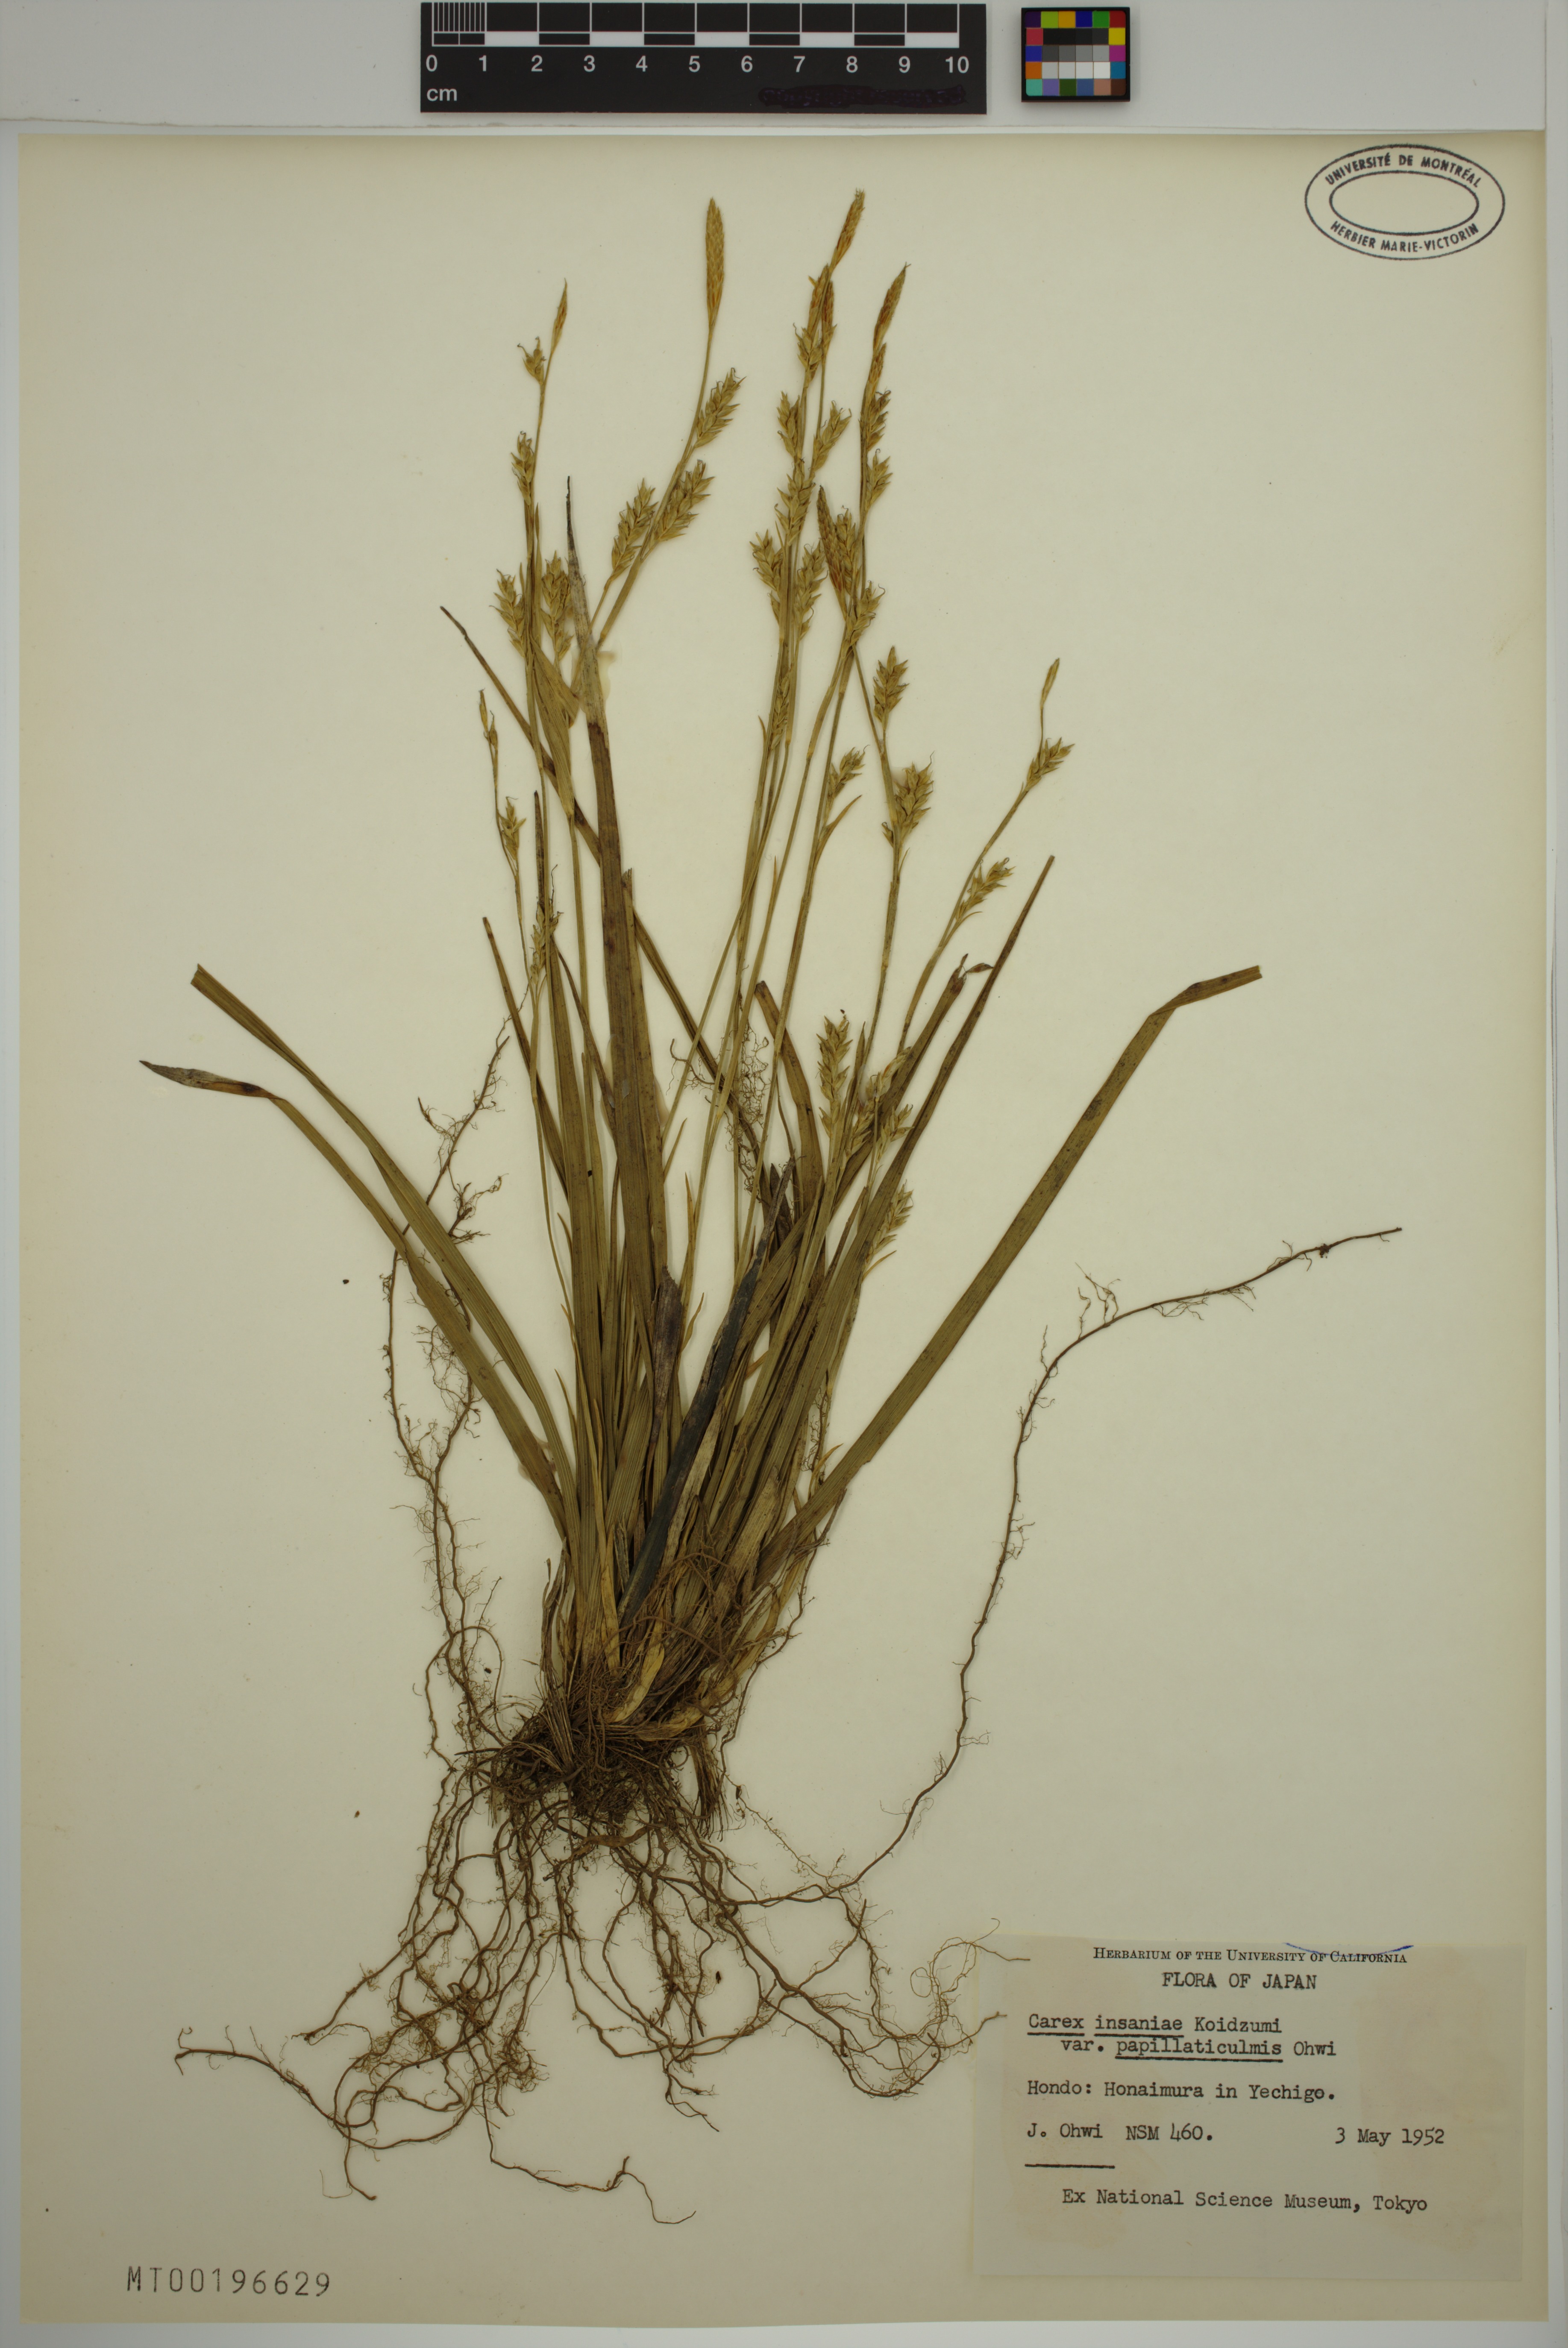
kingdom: Plantae
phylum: Tracheophyta
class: Liliopsida
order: Poales
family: Cyperaceae
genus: Carex
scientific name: Carex insaniae
